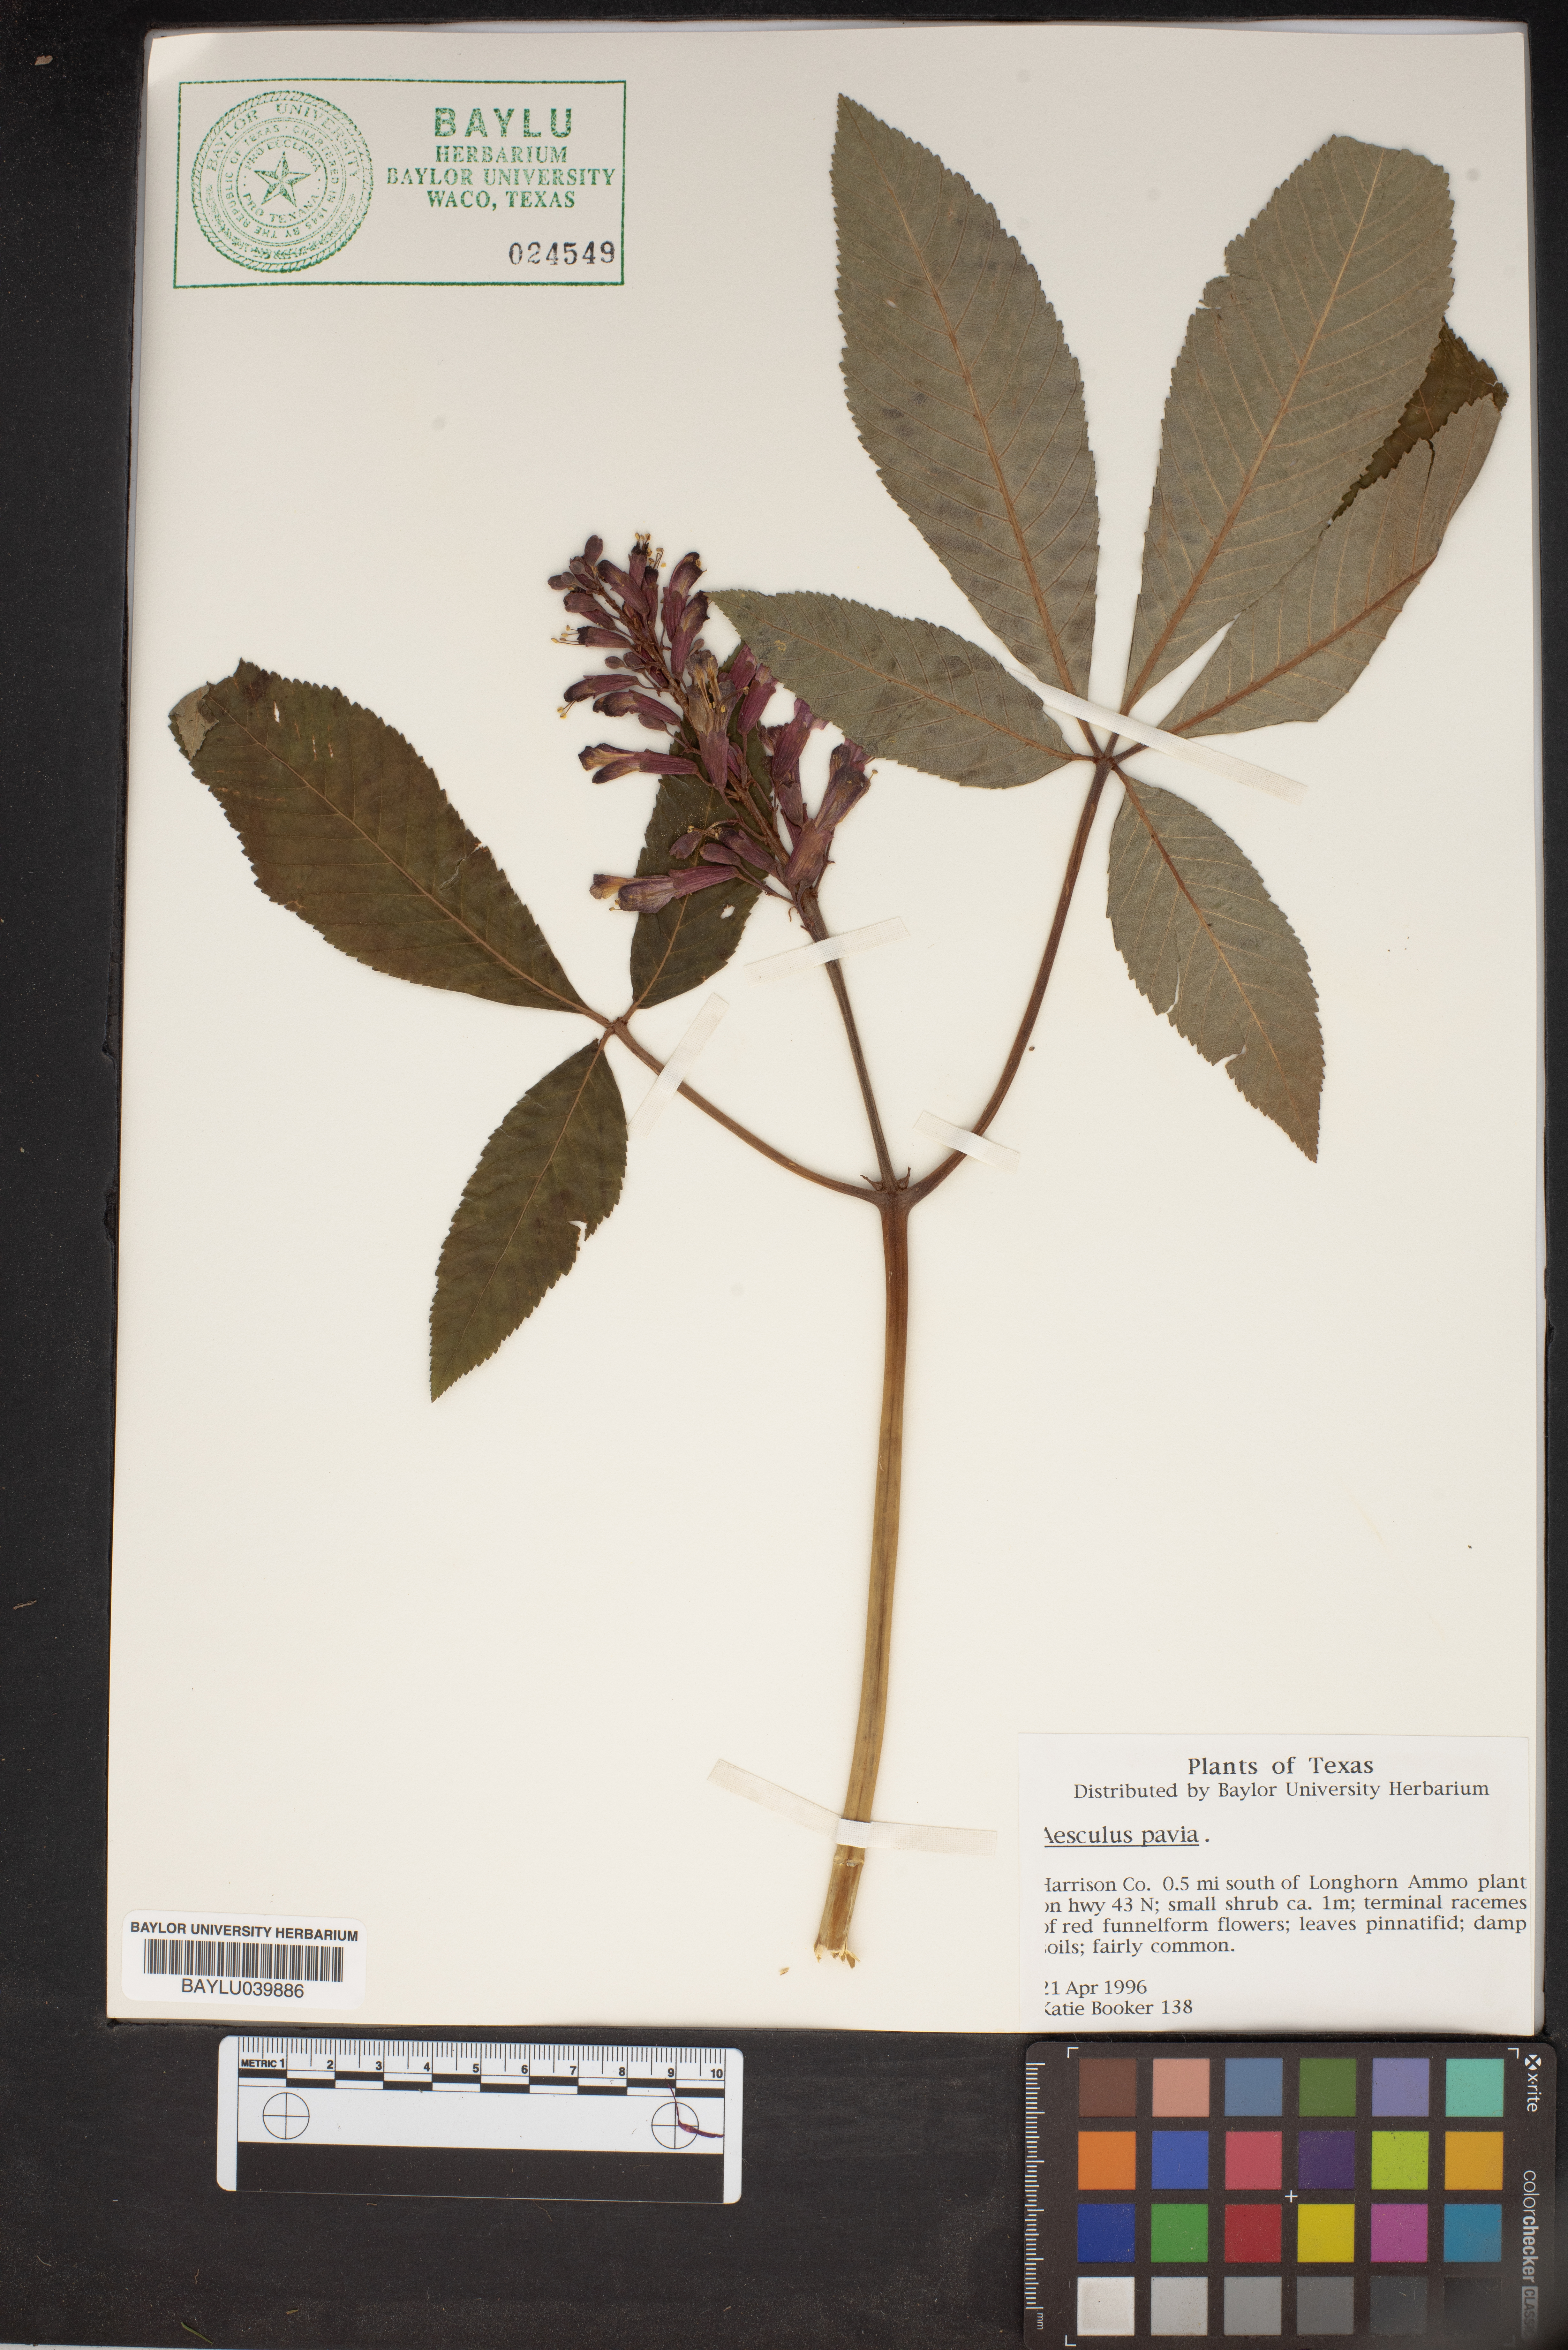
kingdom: Plantae
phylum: Tracheophyta
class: Magnoliopsida
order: Sapindales
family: Sapindaceae
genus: Aesculus
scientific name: Aesculus pavia
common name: Red buckeye
